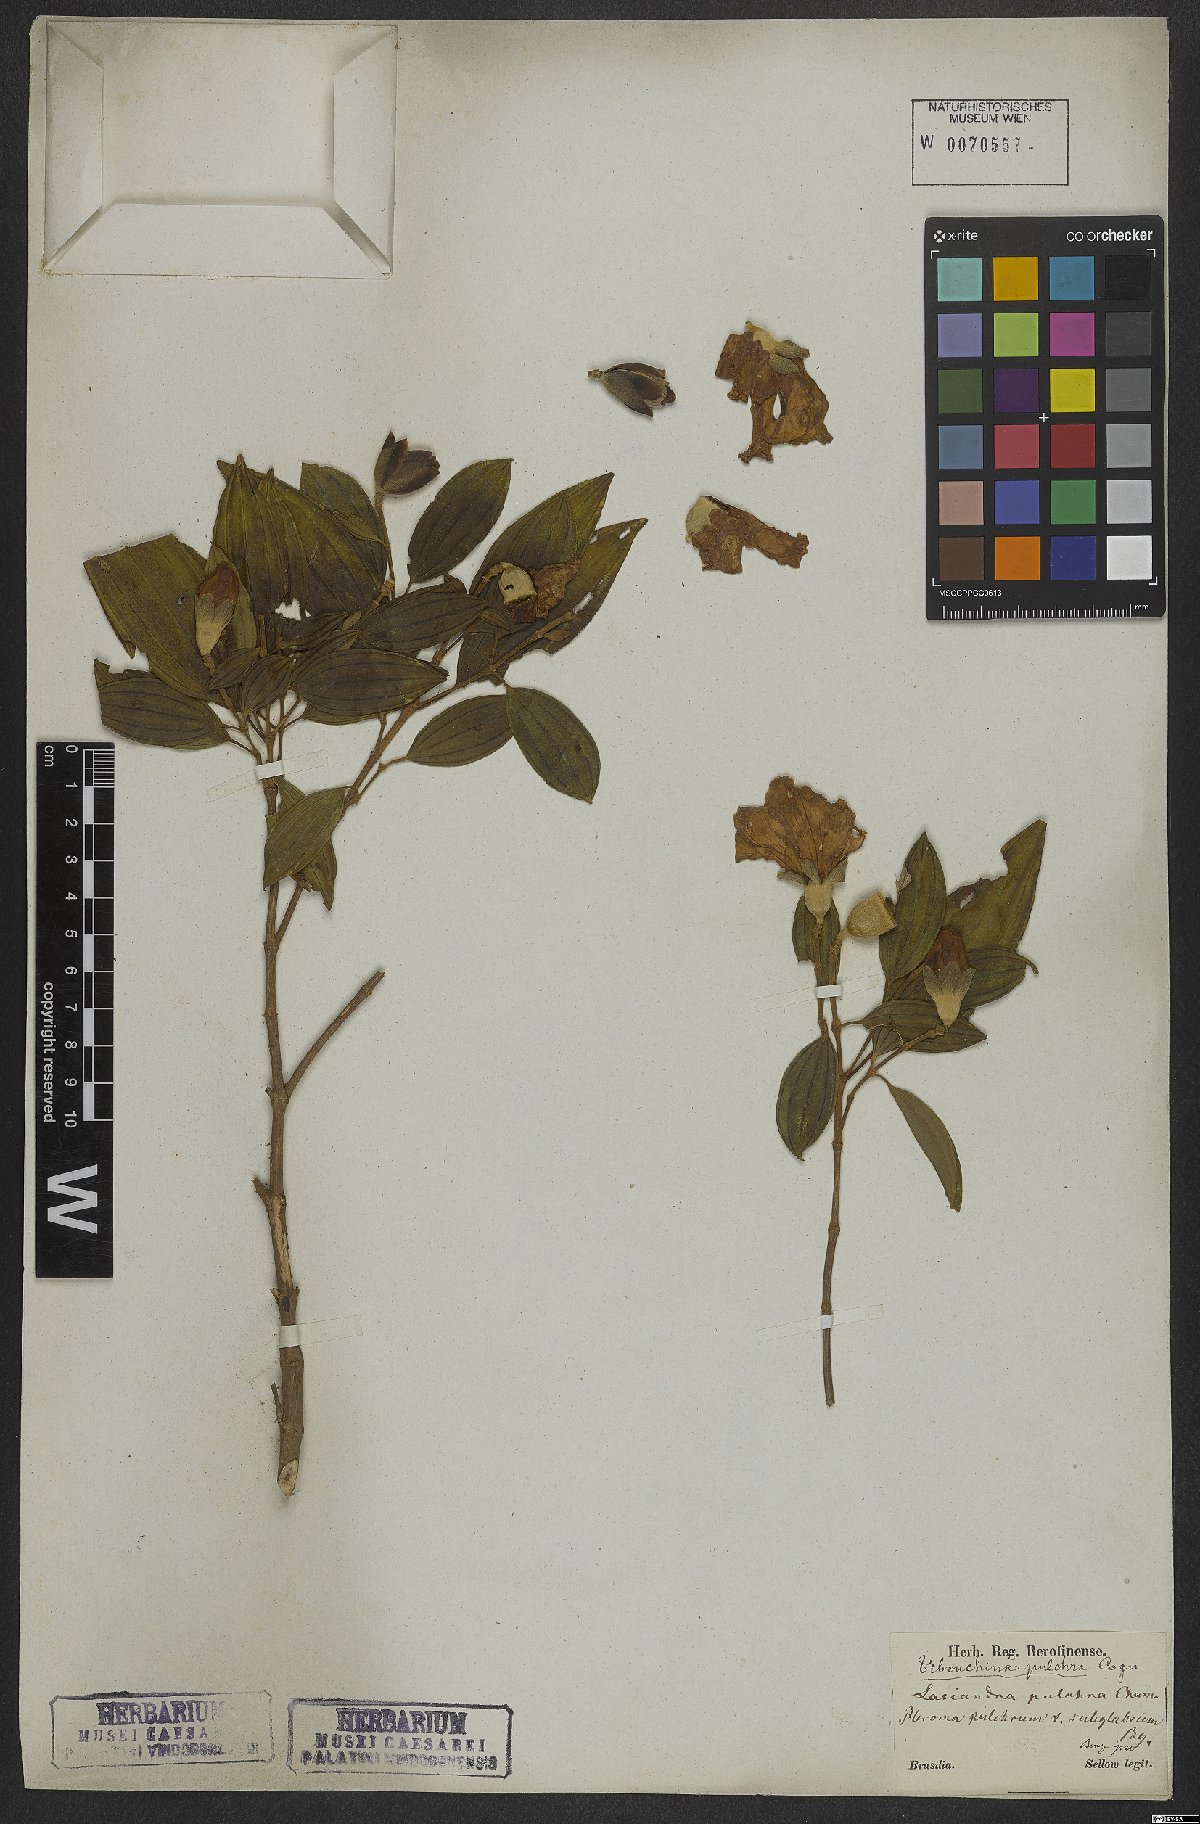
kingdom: Plantae
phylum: Tracheophyta
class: Magnoliopsida
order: Myrtales
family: Melastomataceae
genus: Pleroma
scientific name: Pleroma raddianum
